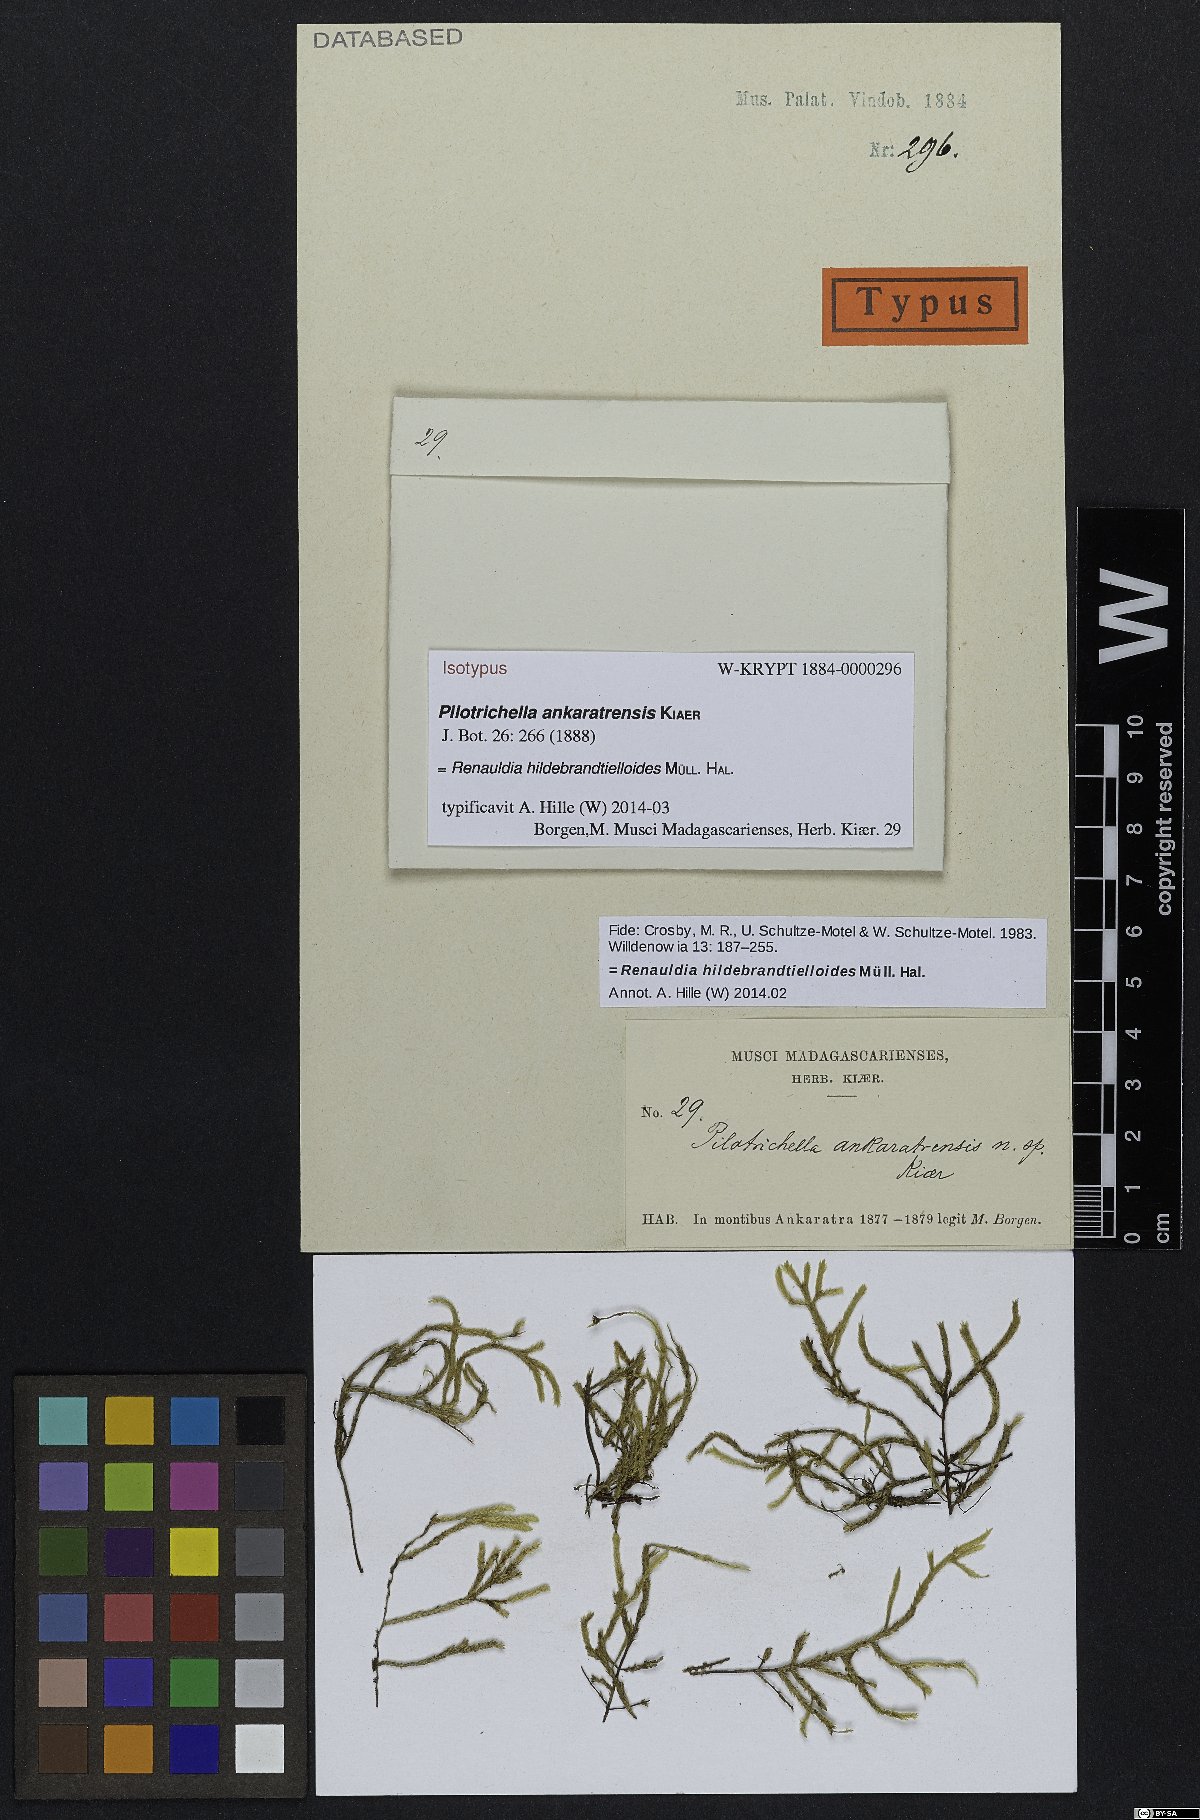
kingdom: Plantae
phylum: Bryophyta
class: Bryopsida
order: Hypnales
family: Pterobryaceae
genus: Renauldia
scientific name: Renauldia hildebrandtielloides
